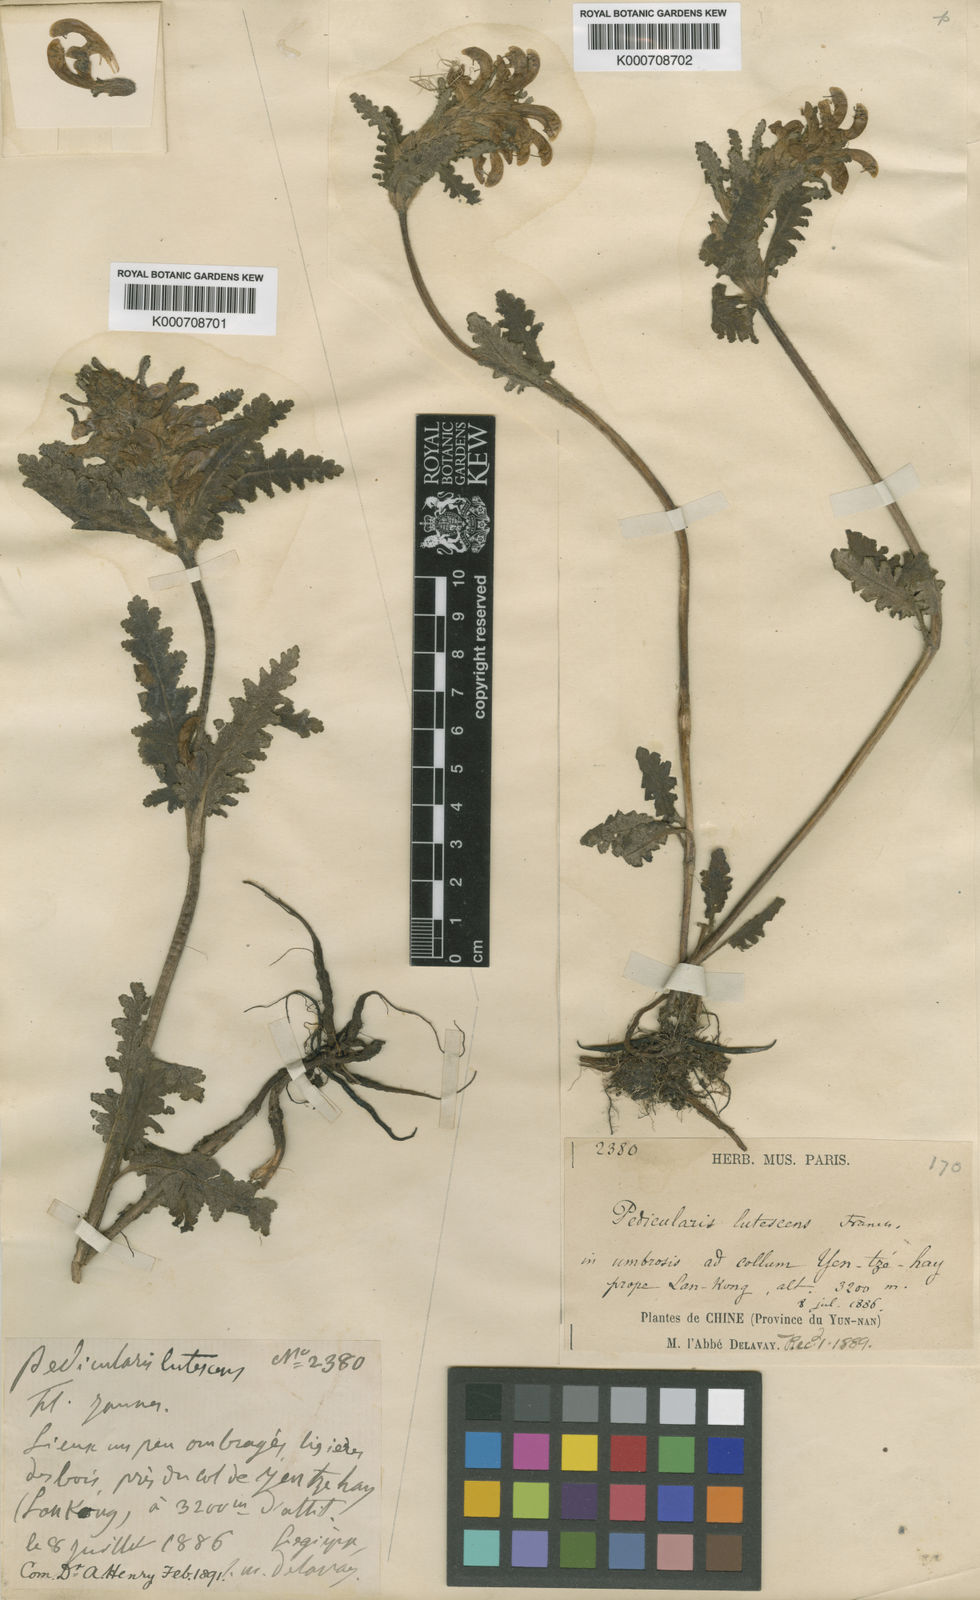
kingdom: Plantae
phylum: Tracheophyta
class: Magnoliopsida
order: Lamiales
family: Orobanchaceae
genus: Pedicularis
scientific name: Pedicularis lutescens
